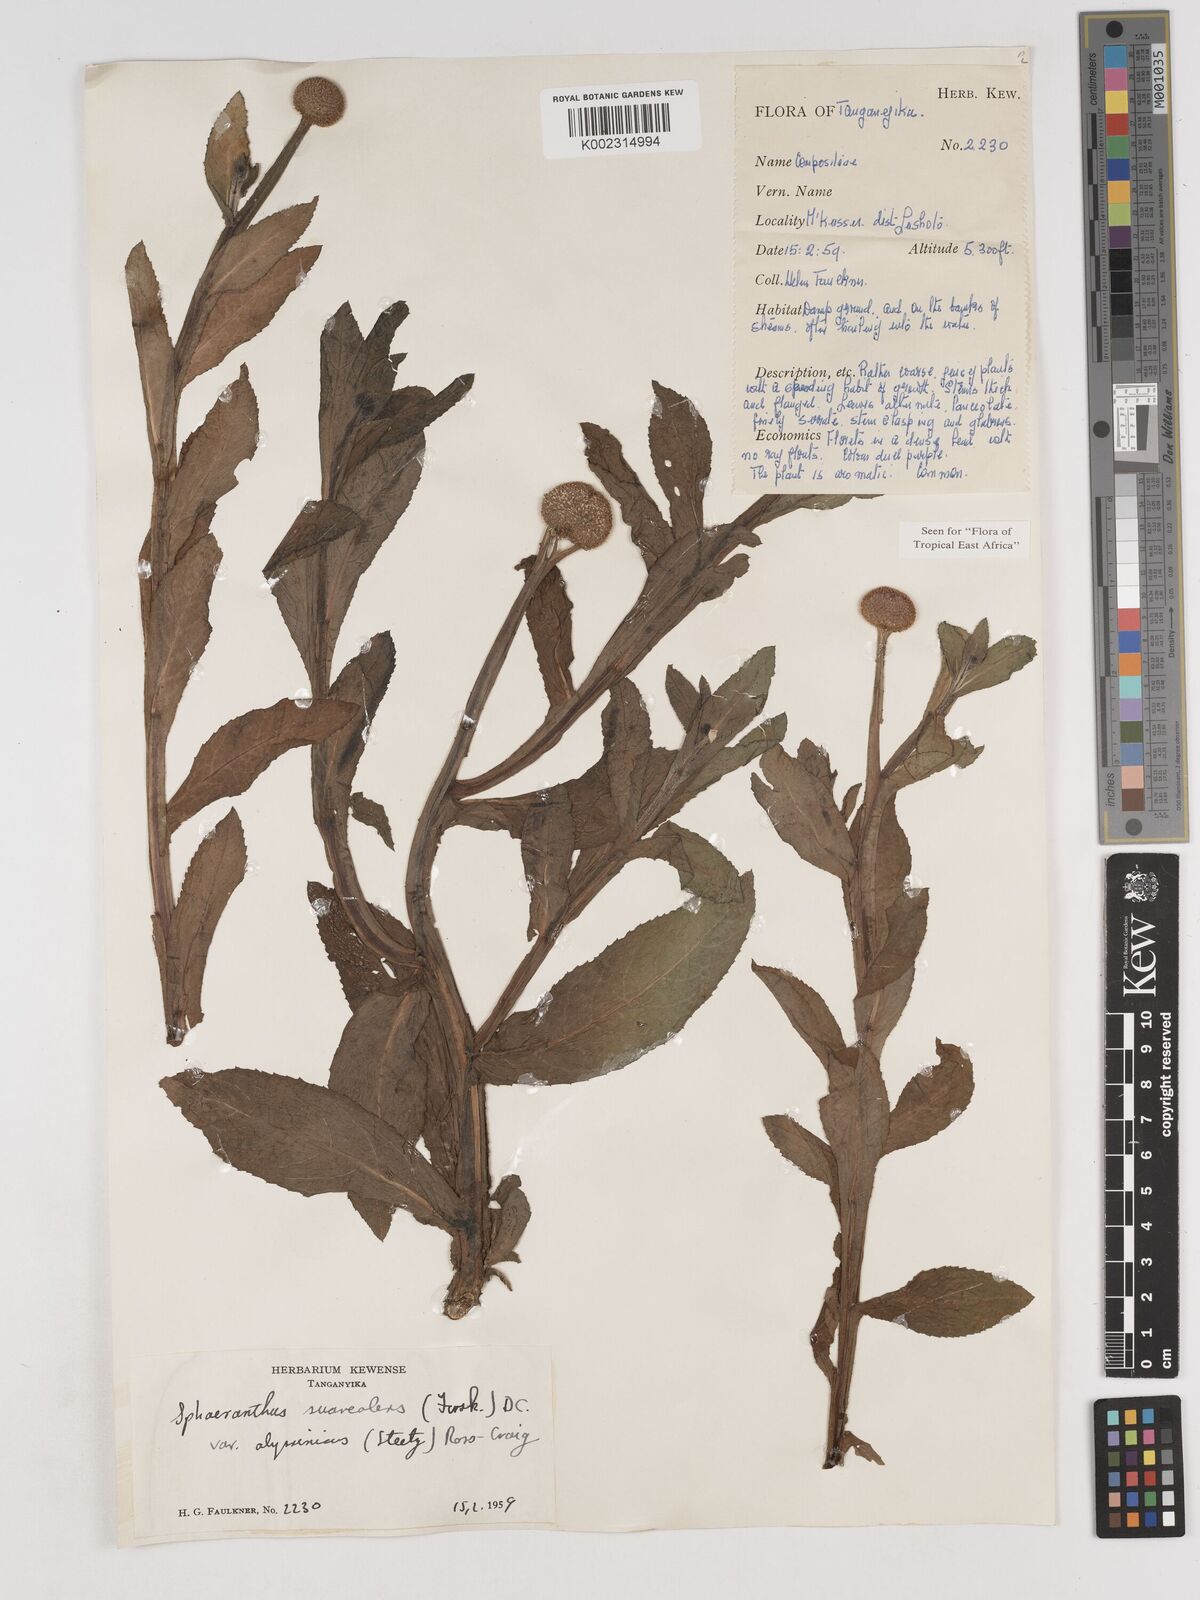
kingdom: Plantae
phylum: Tracheophyta
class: Magnoliopsida
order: Asterales
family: Asteraceae
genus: Sphaeranthus
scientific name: Sphaeranthus suaveolens
